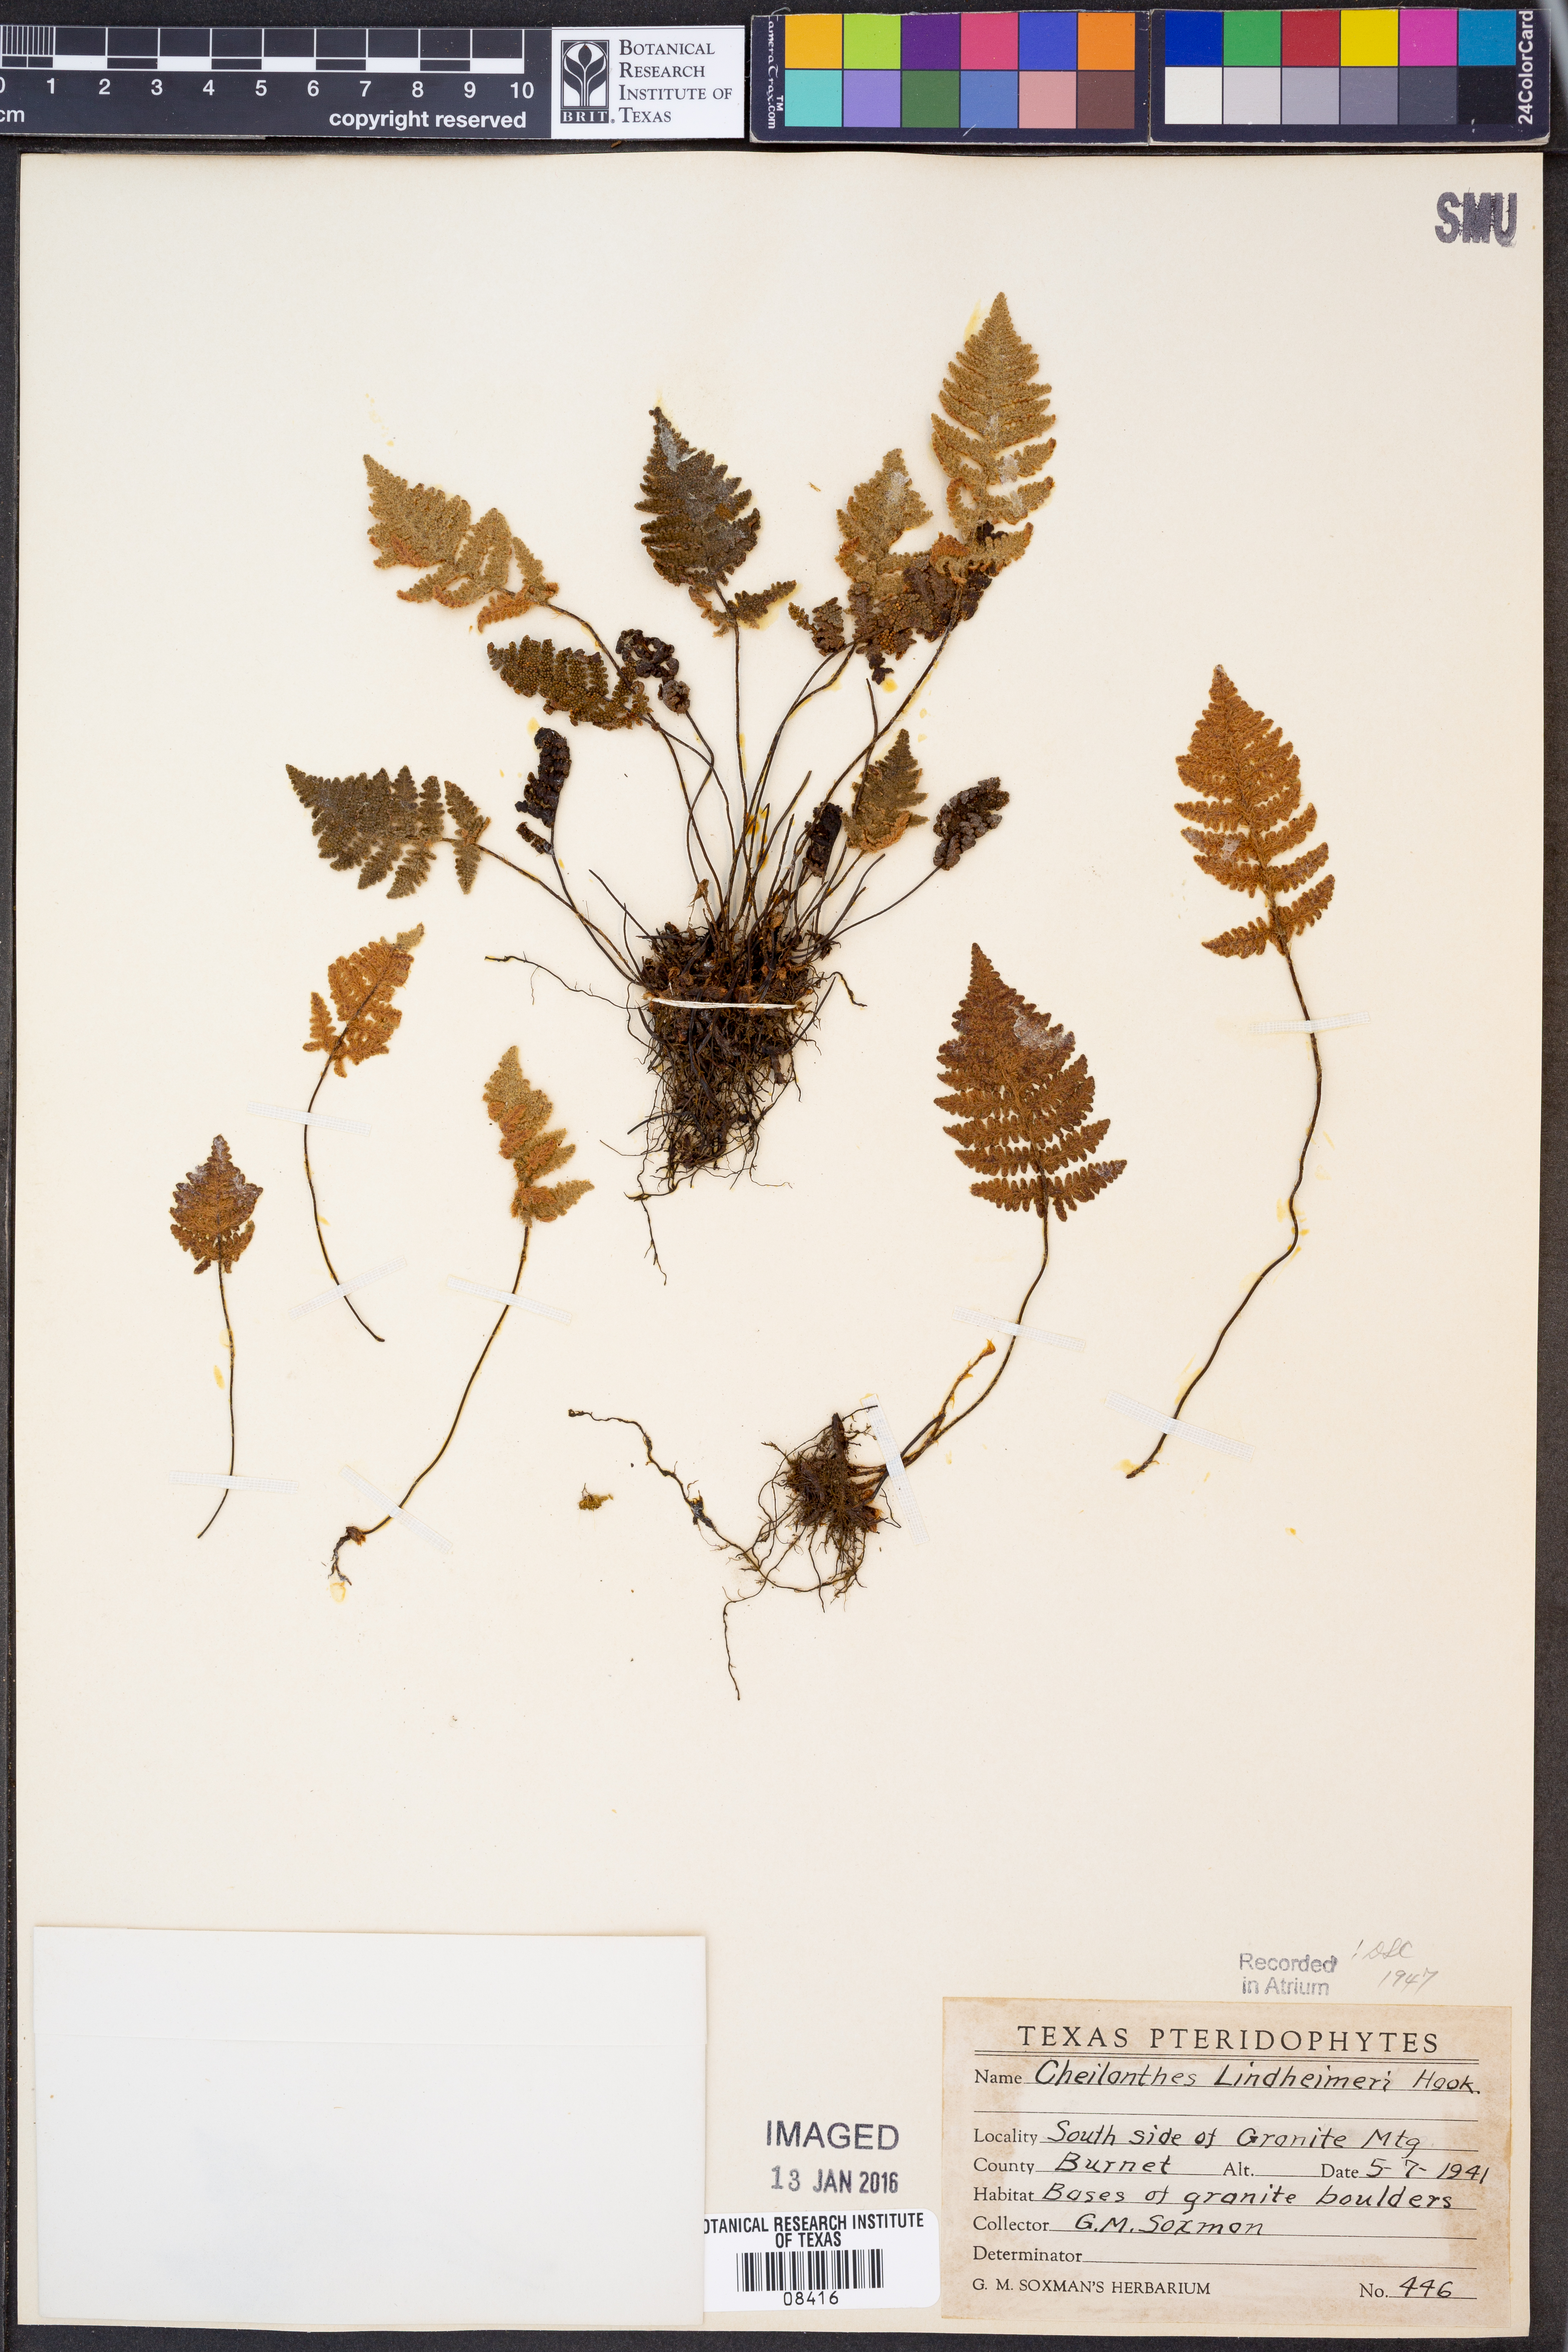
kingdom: Plantae
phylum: Tracheophyta
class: Polypodiopsida
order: Polypodiales
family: Pteridaceae
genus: Myriopteris
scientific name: Myriopteris lindheimeri
